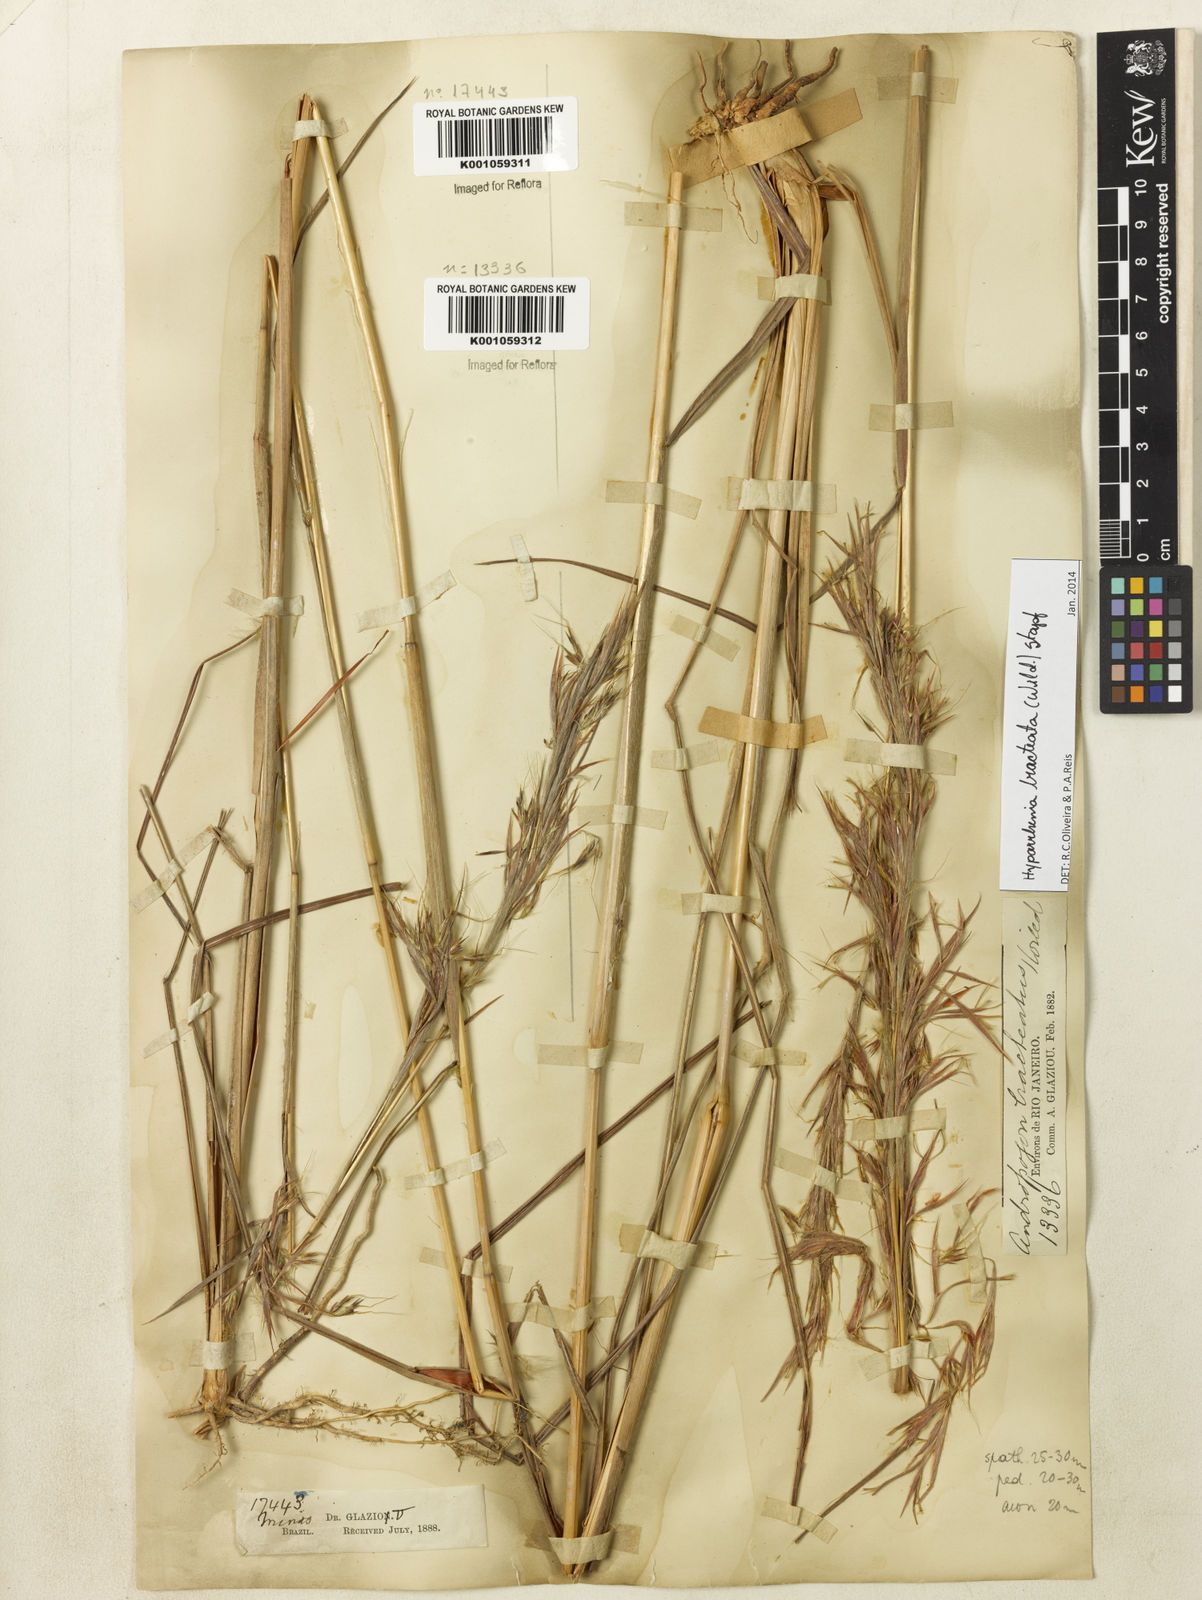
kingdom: Plantae
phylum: Tracheophyta
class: Liliopsida
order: Poales
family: Poaceae
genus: Hyparrhenia
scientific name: Hyparrhenia bracteata
